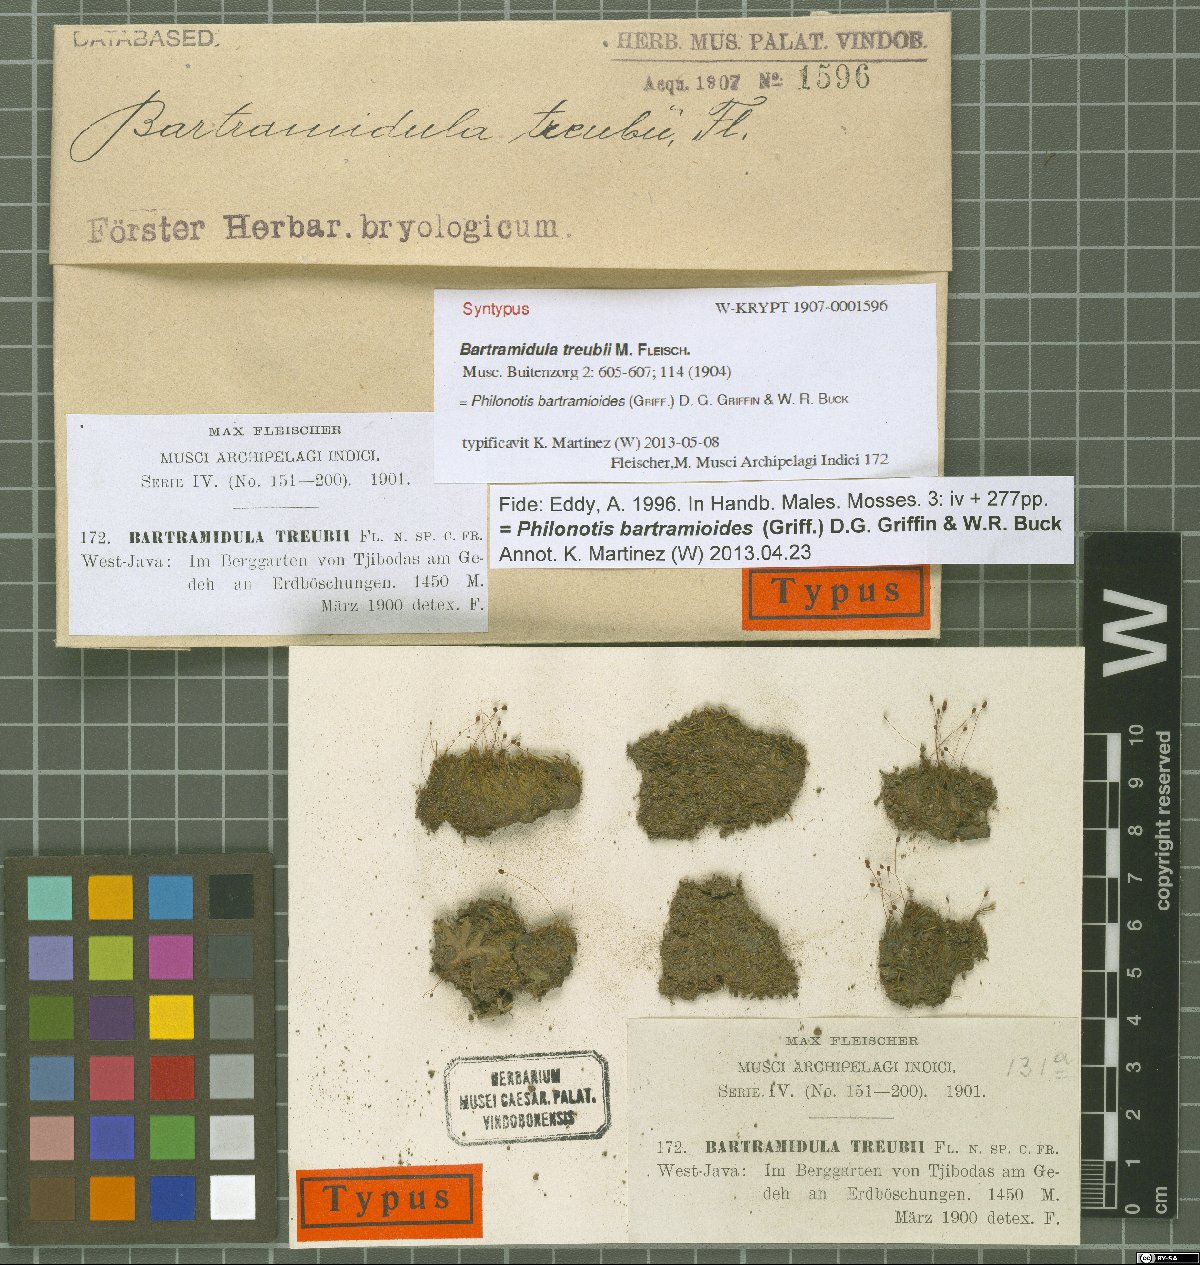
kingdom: Plantae
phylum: Bryophyta
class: Bryopsida
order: Bartramiales
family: Bartramiaceae
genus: Philonotis
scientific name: Philonotis calomicra
